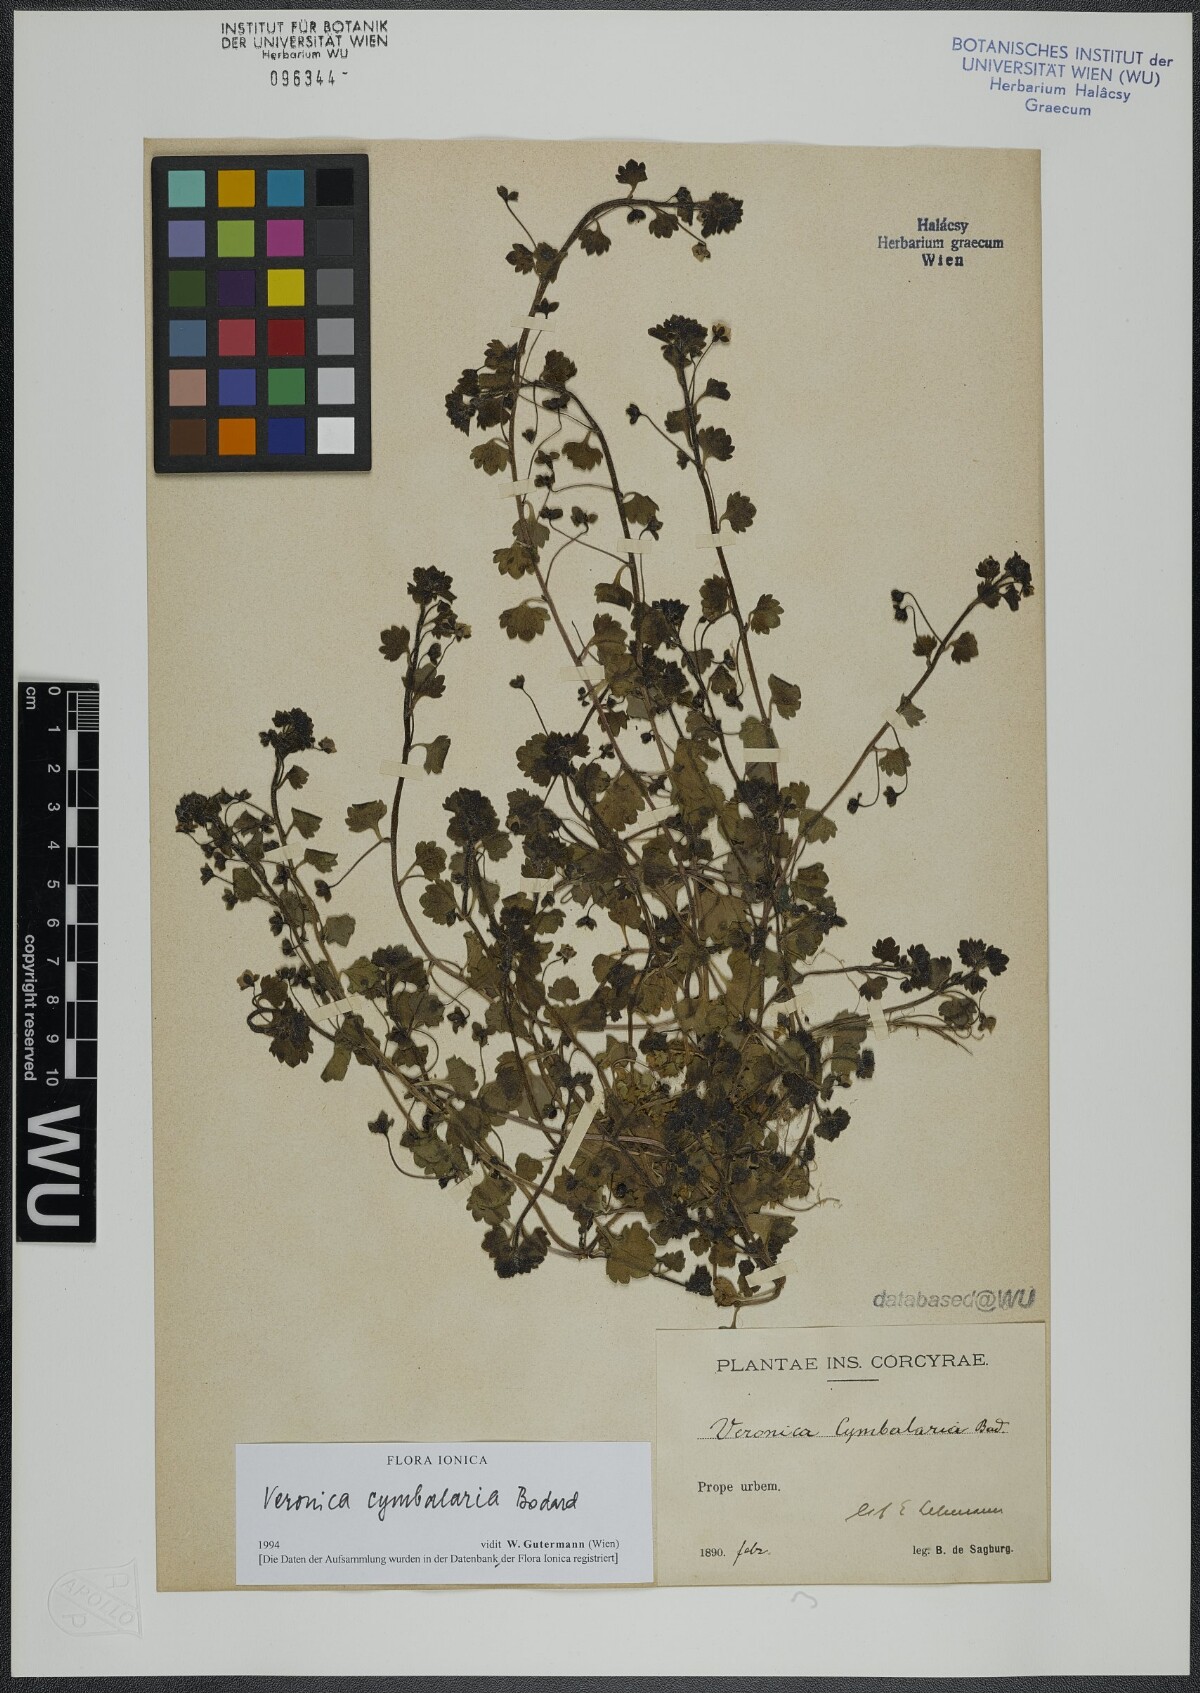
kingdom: Plantae
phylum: Tracheophyta
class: Magnoliopsida
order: Lamiales
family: Plantaginaceae
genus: Veronica
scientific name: Veronica cymbalaria
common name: Pale speedwell
